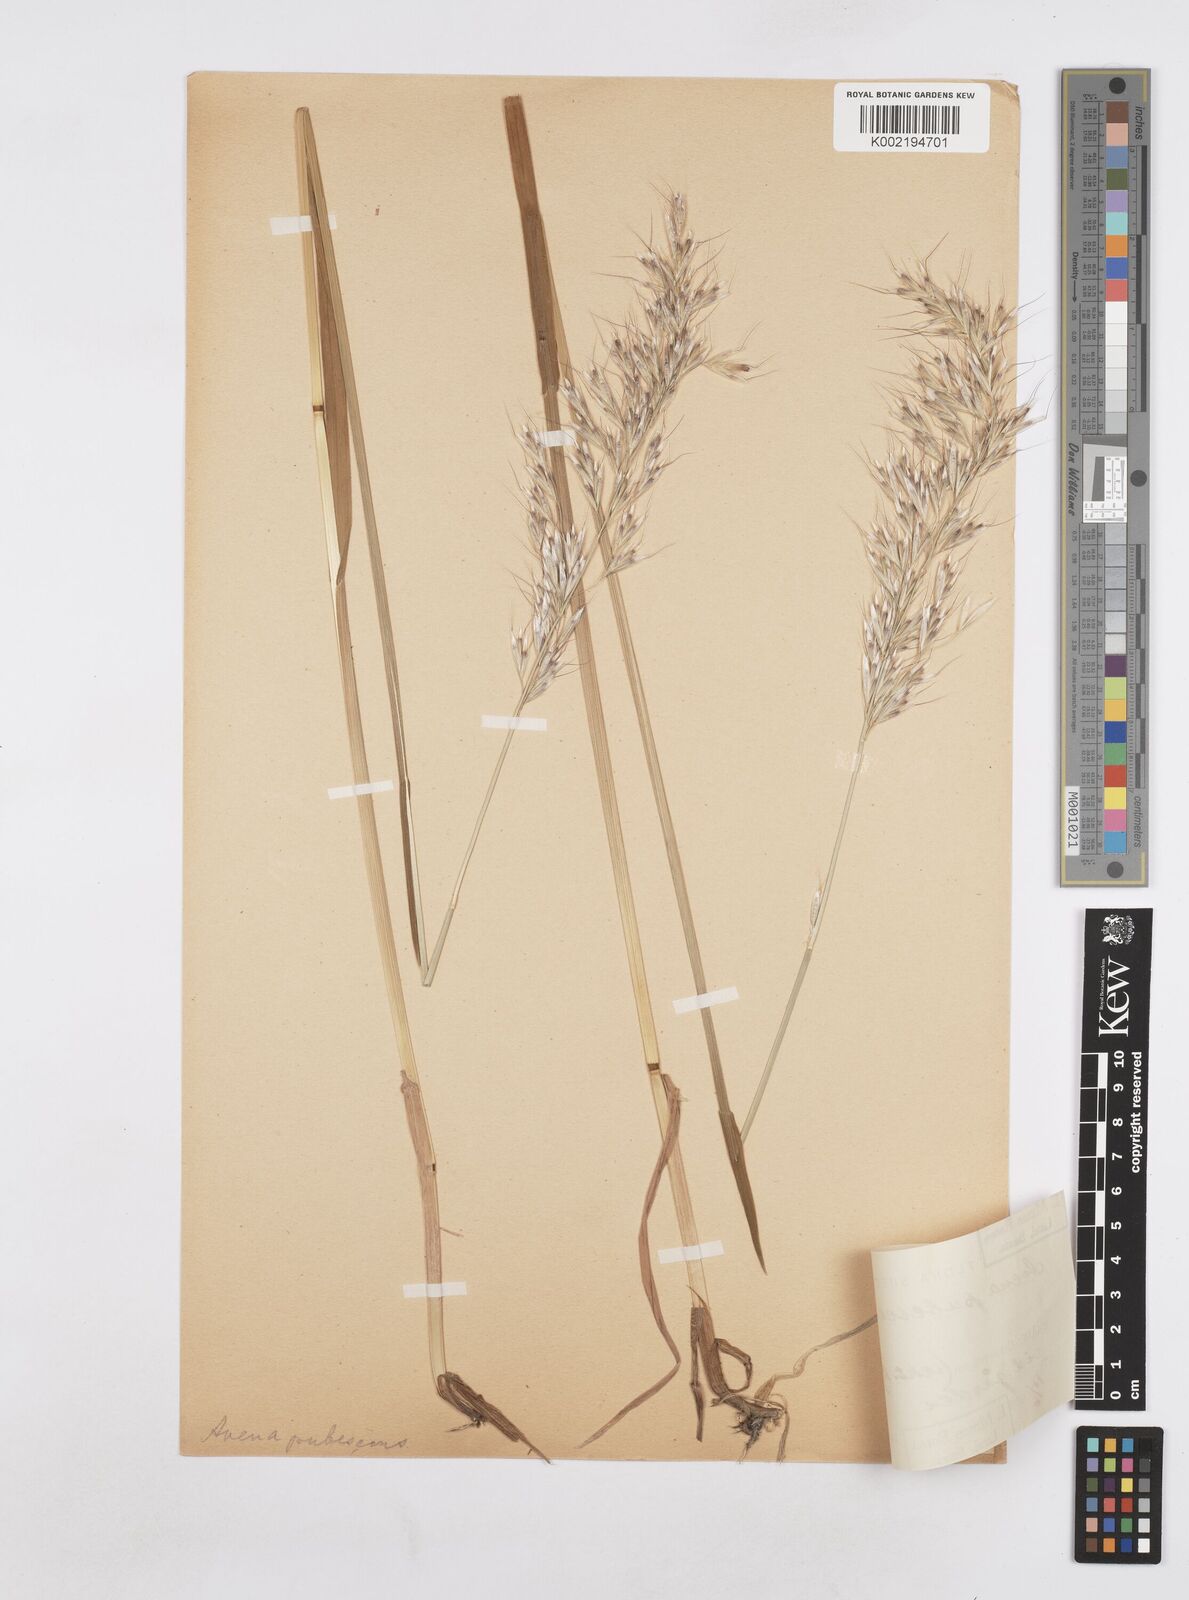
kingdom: Plantae
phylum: Tracheophyta
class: Liliopsida
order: Poales
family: Poaceae
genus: Avenula
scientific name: Avenula pubescens
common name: Downy alpine oatgrass
